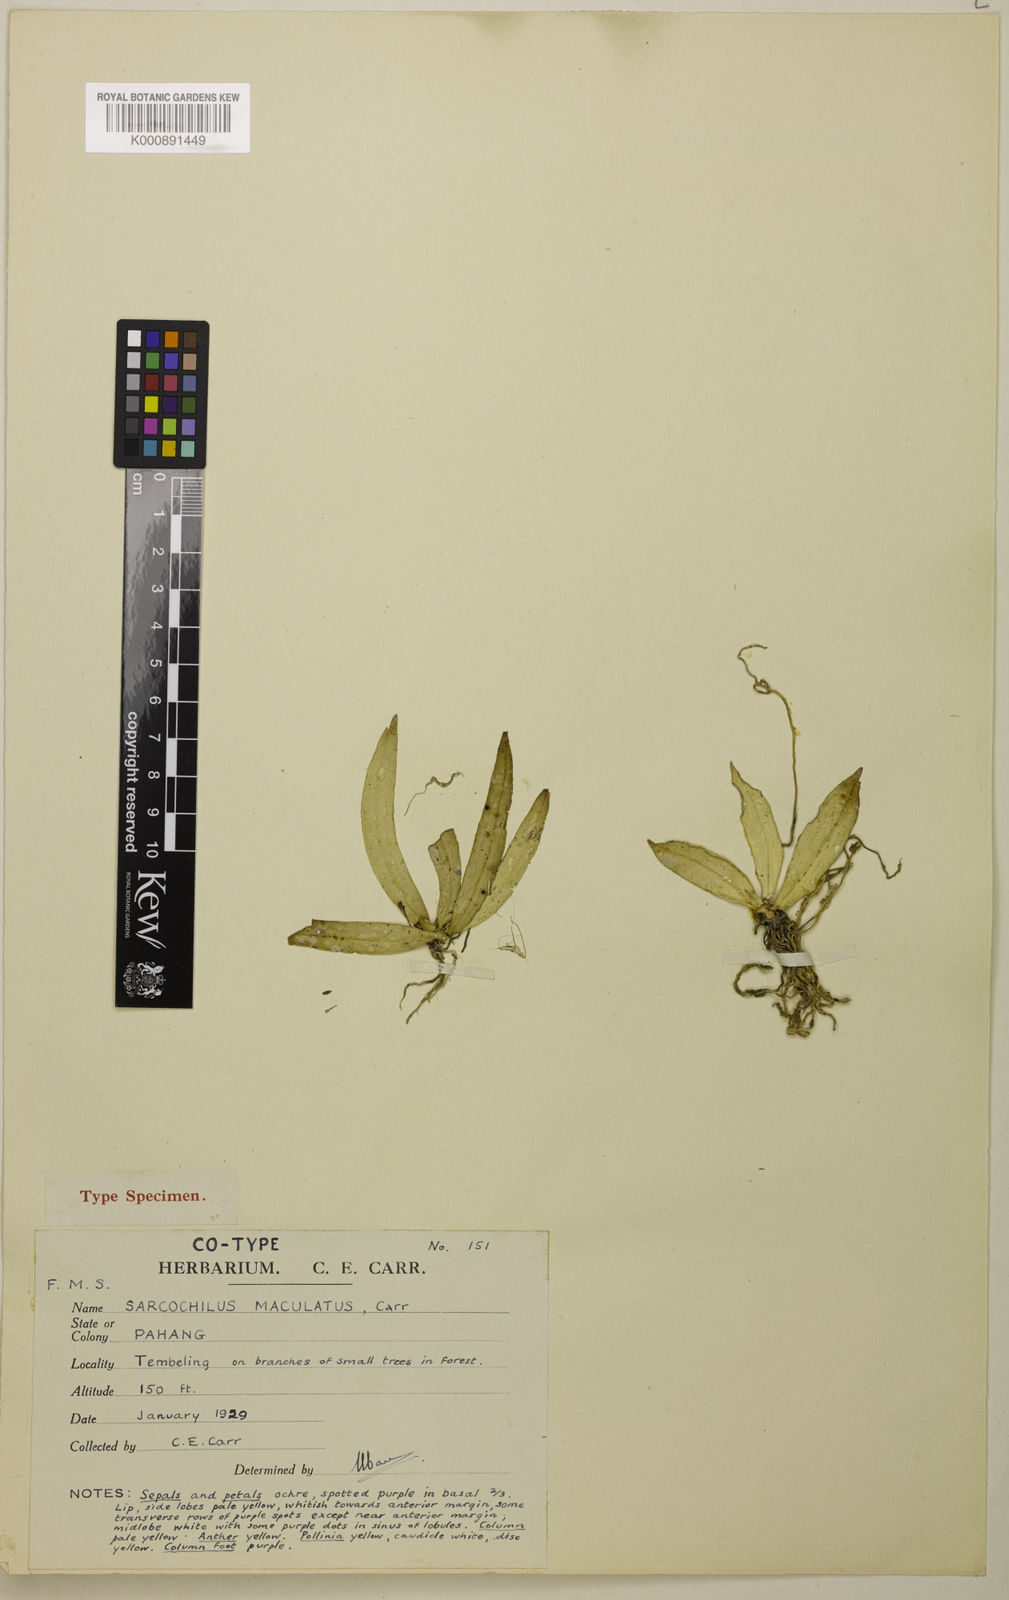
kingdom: Plantae
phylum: Tracheophyta
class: Liliopsida
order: Asparagales
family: Orchidaceae
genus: Grosourdya
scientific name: Grosourdya muscosa
